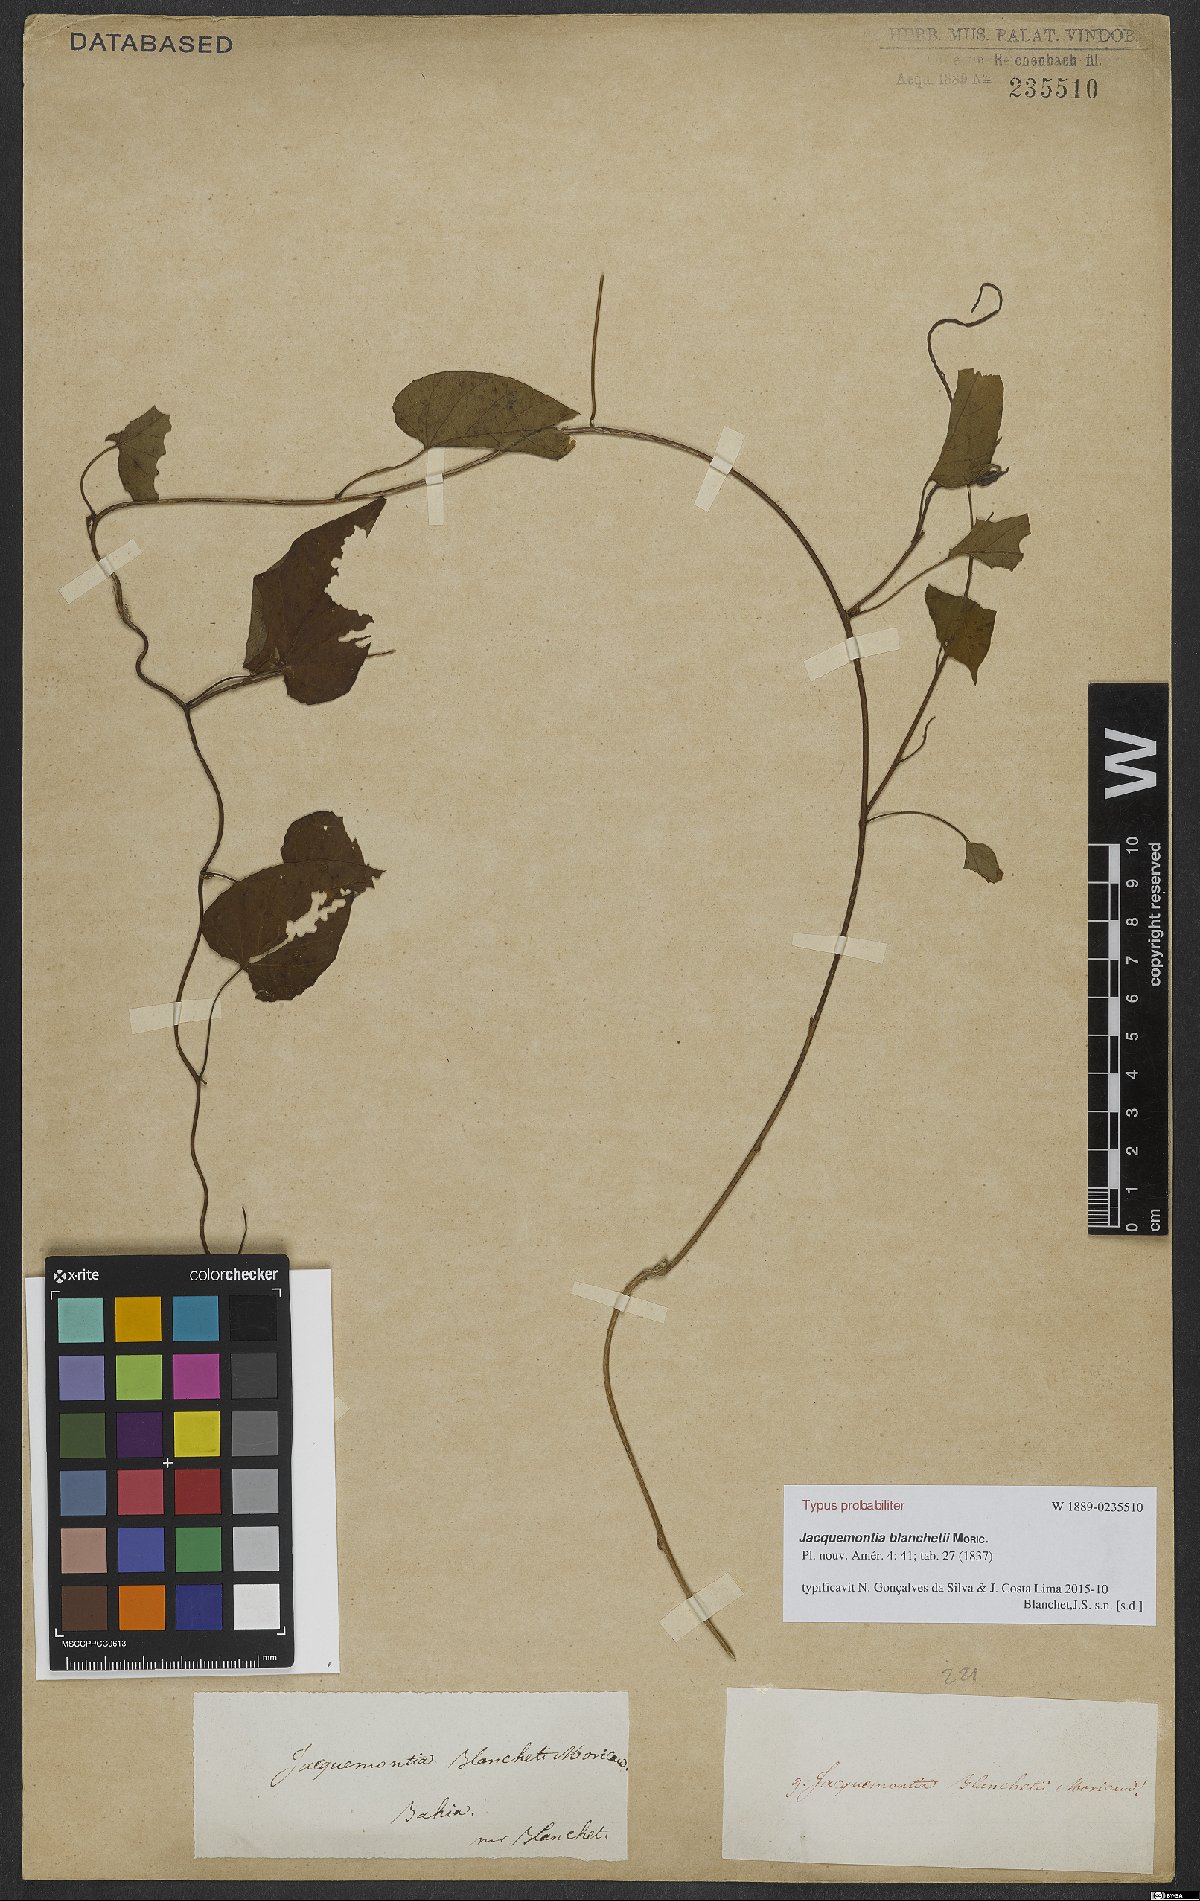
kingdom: Plantae
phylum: Tracheophyta
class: Magnoliopsida
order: Solanales
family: Convolvulaceae
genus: Jacquemontia
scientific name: Jacquemontia blanchetii
